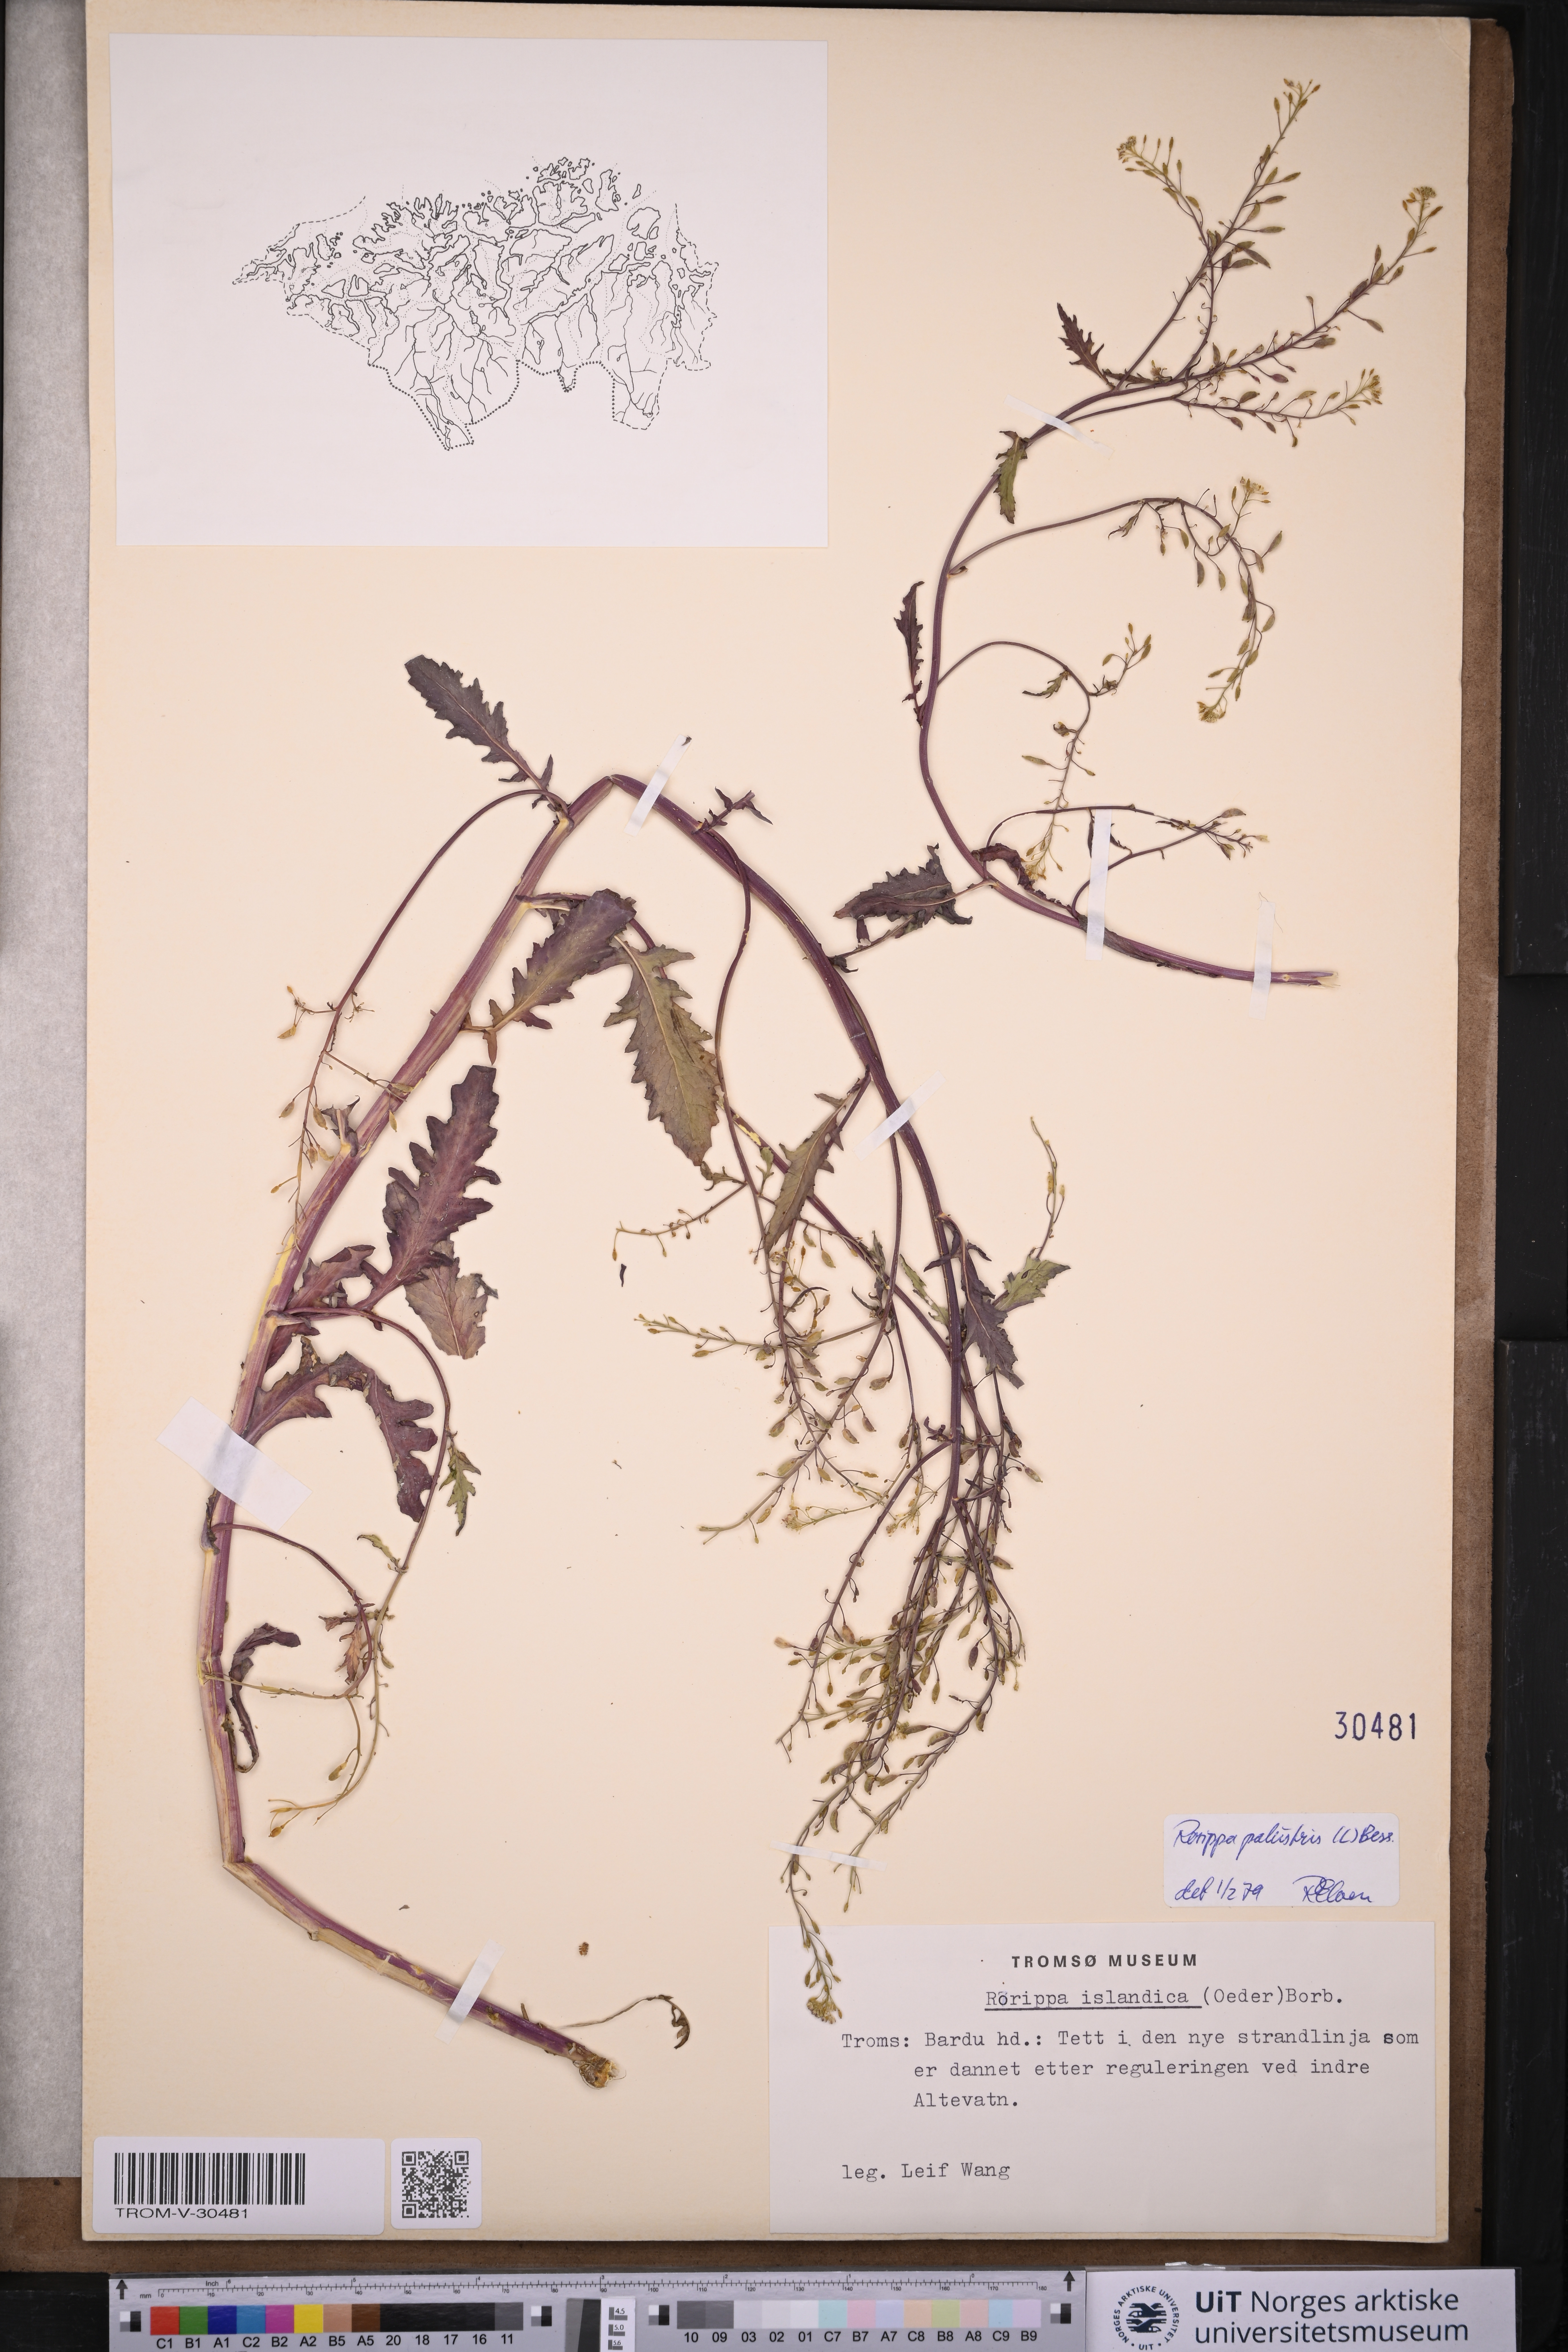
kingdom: Plantae
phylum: Tracheophyta
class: Magnoliopsida
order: Brassicales
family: Brassicaceae
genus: Rorippa
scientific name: Rorippa palustris
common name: Marsh yellow-cress
